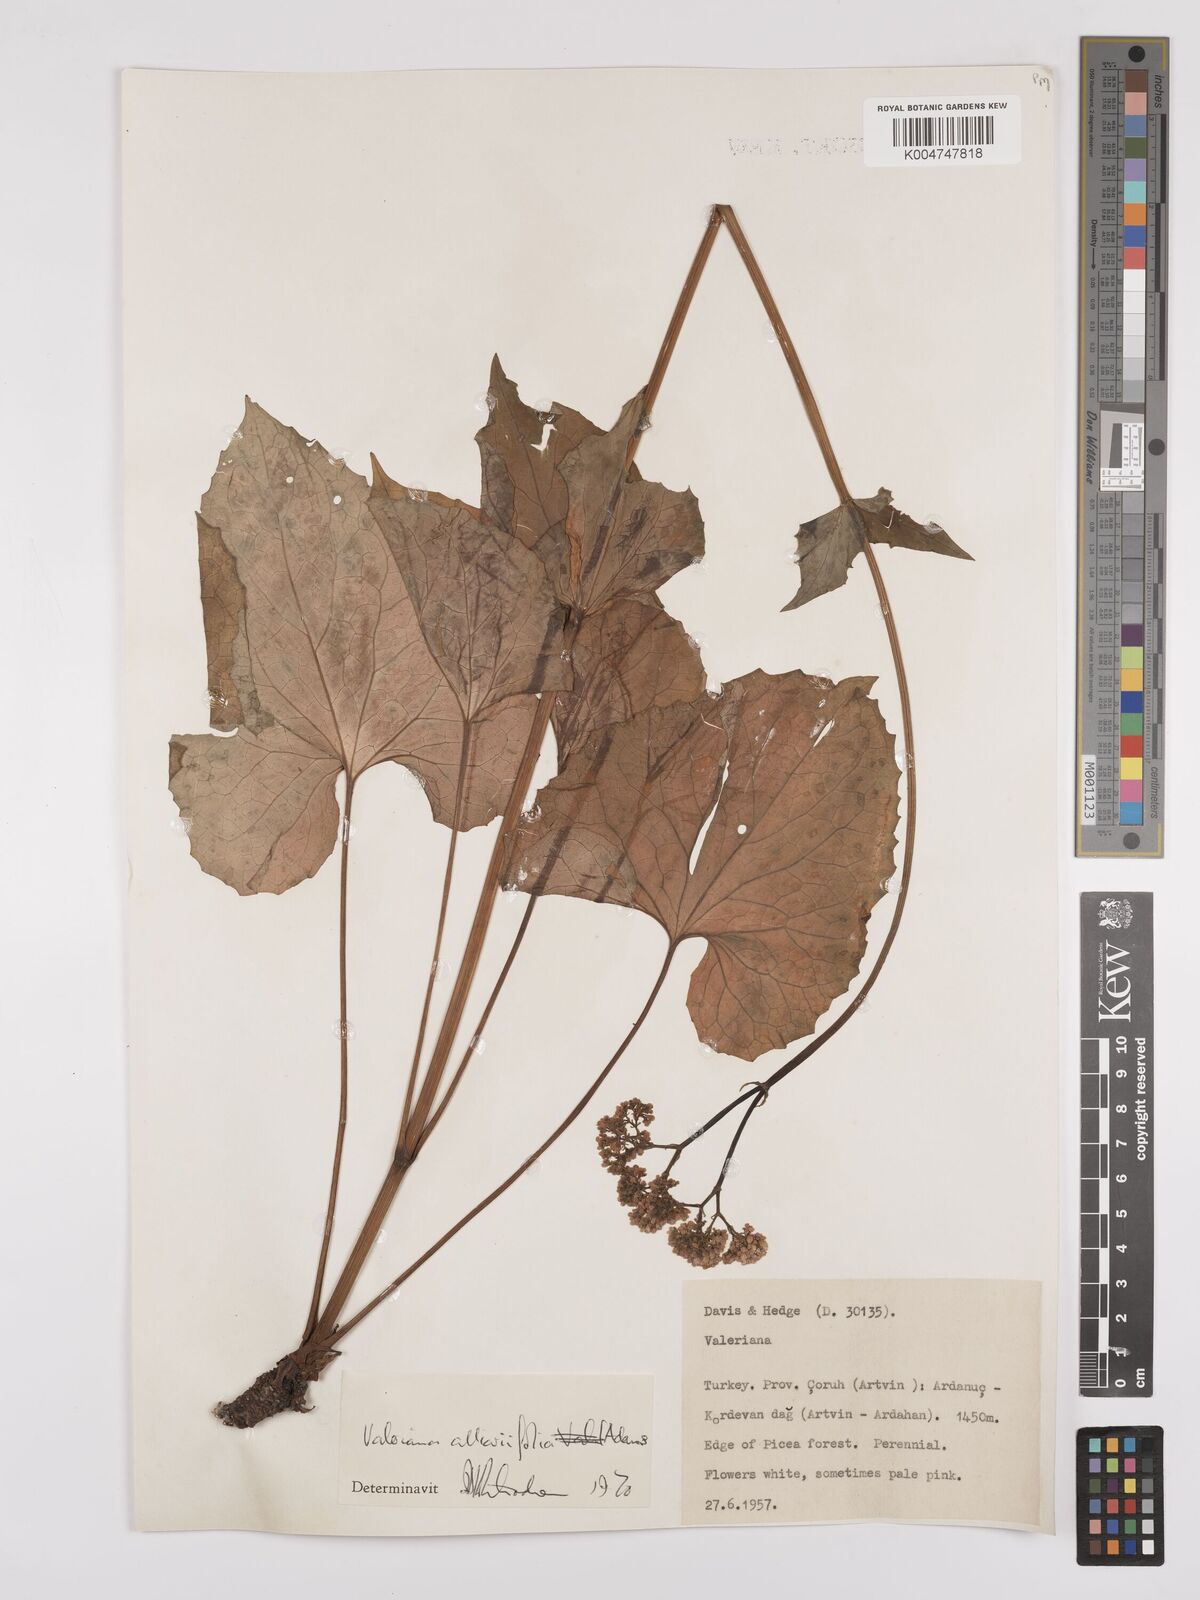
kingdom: Plantae
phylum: Tracheophyta
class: Magnoliopsida
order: Dipsacales
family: Caprifoliaceae
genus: Valeriana
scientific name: Valeriana
